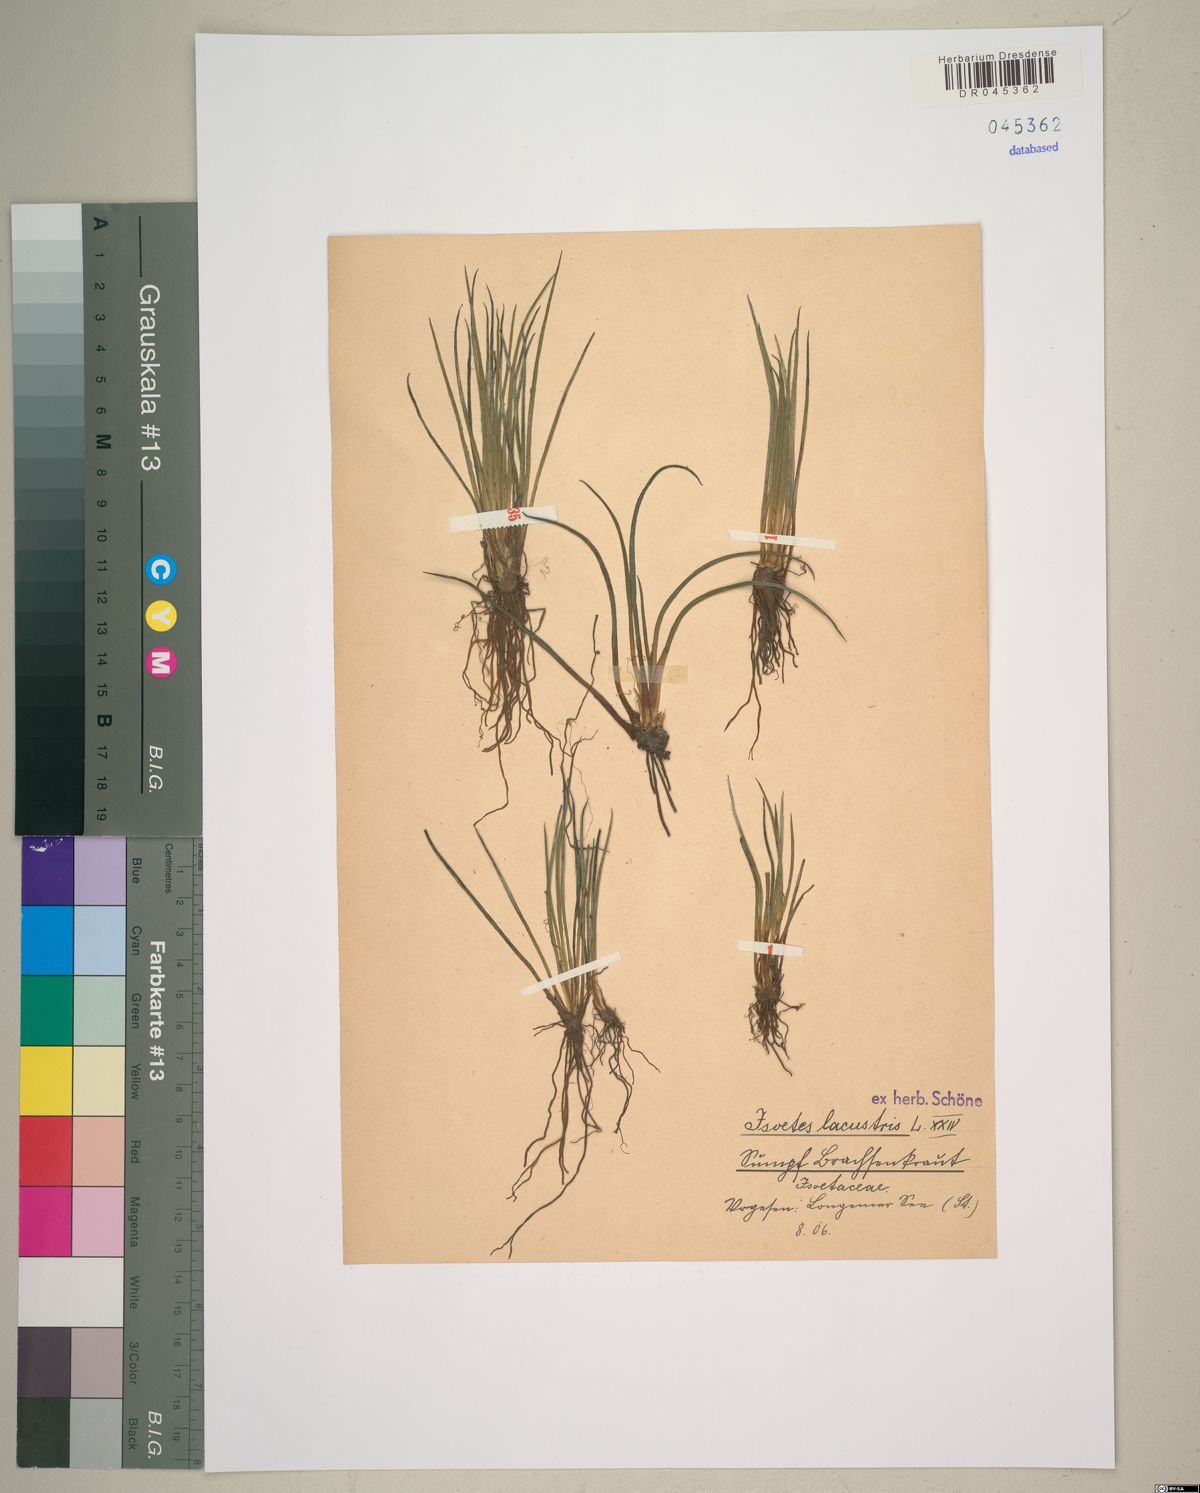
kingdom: Plantae
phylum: Tracheophyta
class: Lycopodiopsida
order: Isoetales
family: Isoetaceae
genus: Isoetes
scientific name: Isoetes lacustris
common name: Common quillwort
